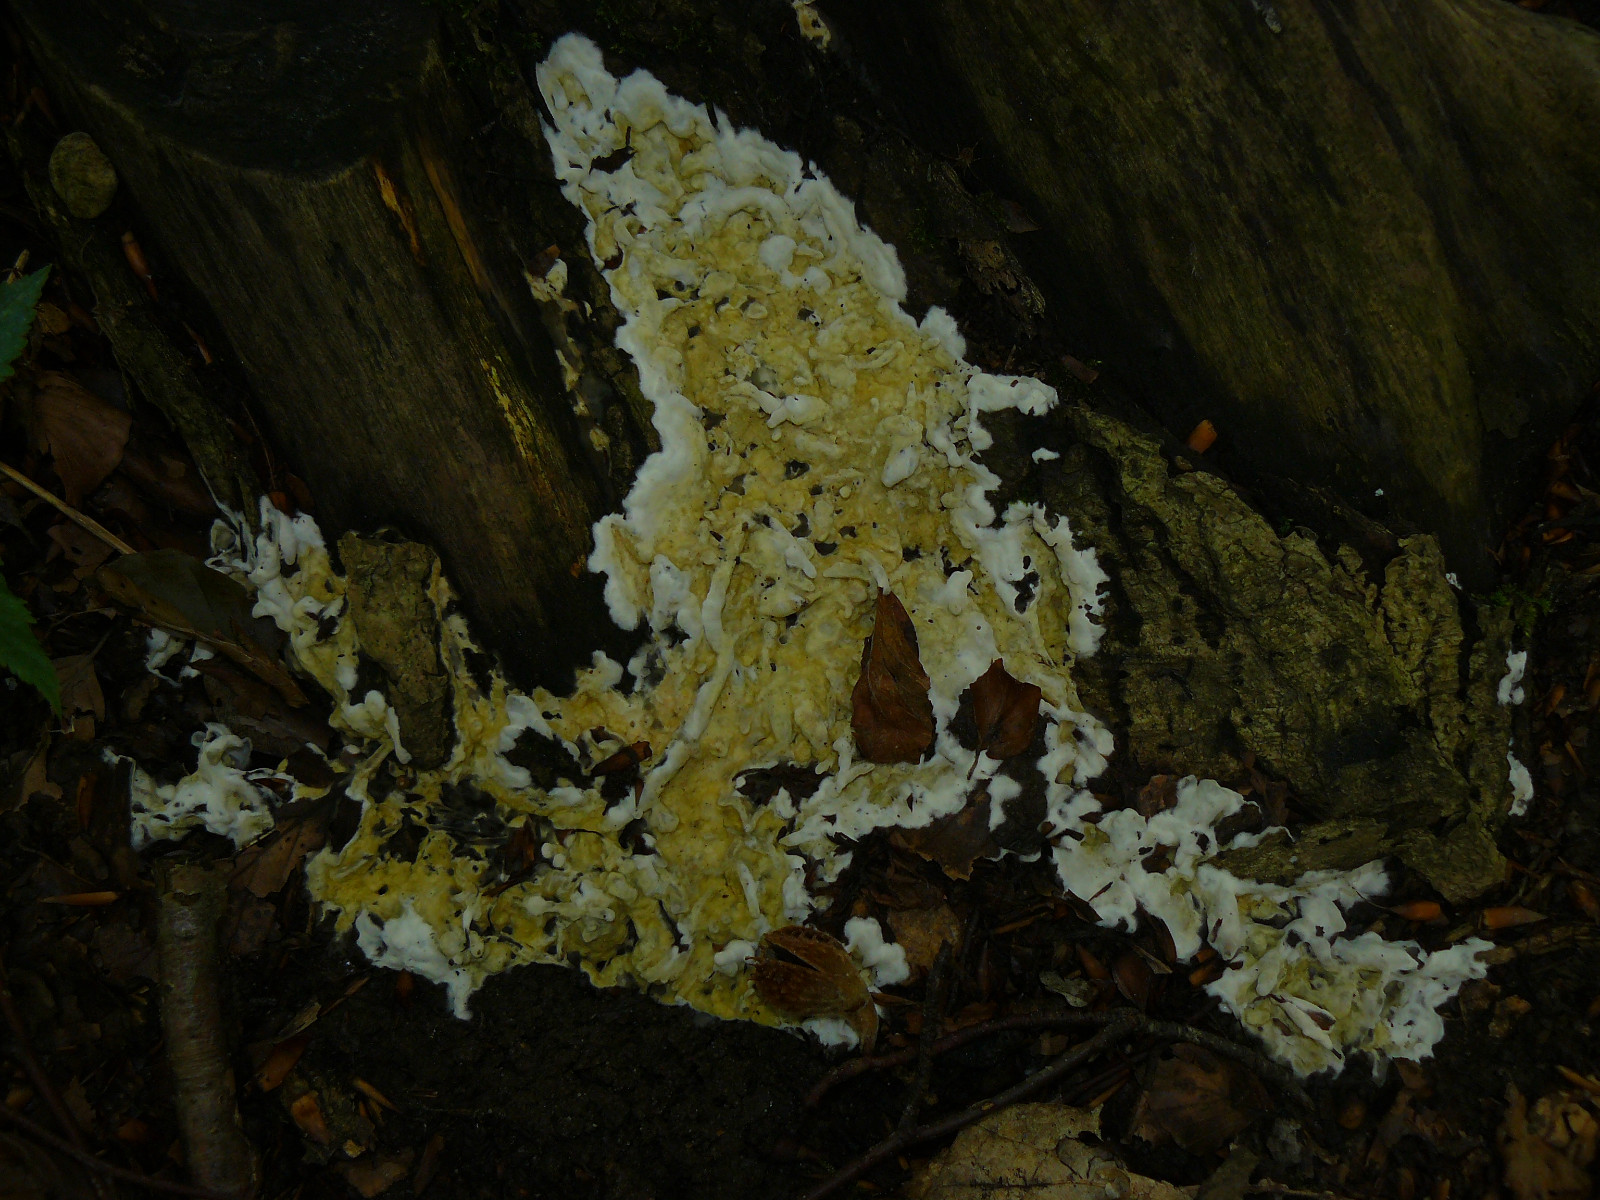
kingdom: Fungi
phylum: Ascomycota
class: Sordariomycetes
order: Hypocreales
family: Hypocreaceae
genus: Trichoderma
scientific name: Trichoderma citrinum
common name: udbredt kødkerne
